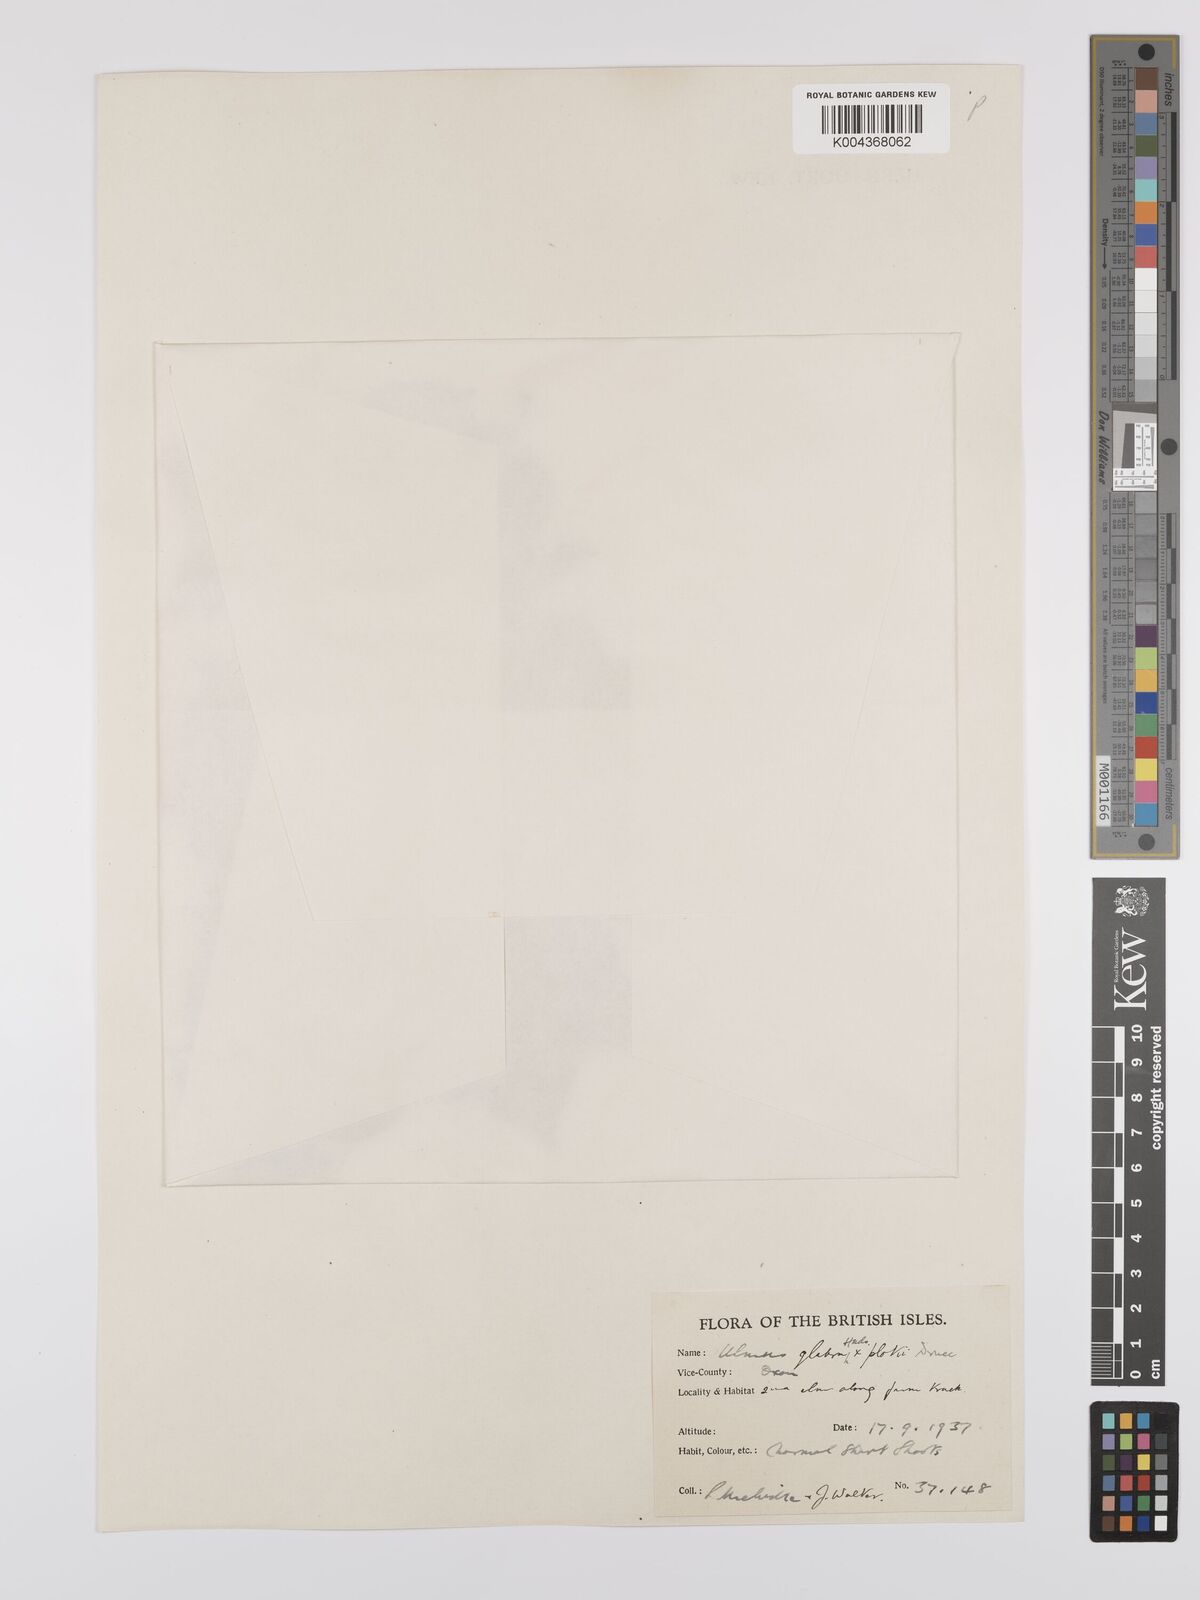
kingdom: Plantae
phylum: Tracheophyta
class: Magnoliopsida
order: Rosales
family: Ulmaceae
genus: Ulmus
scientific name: Ulmus
